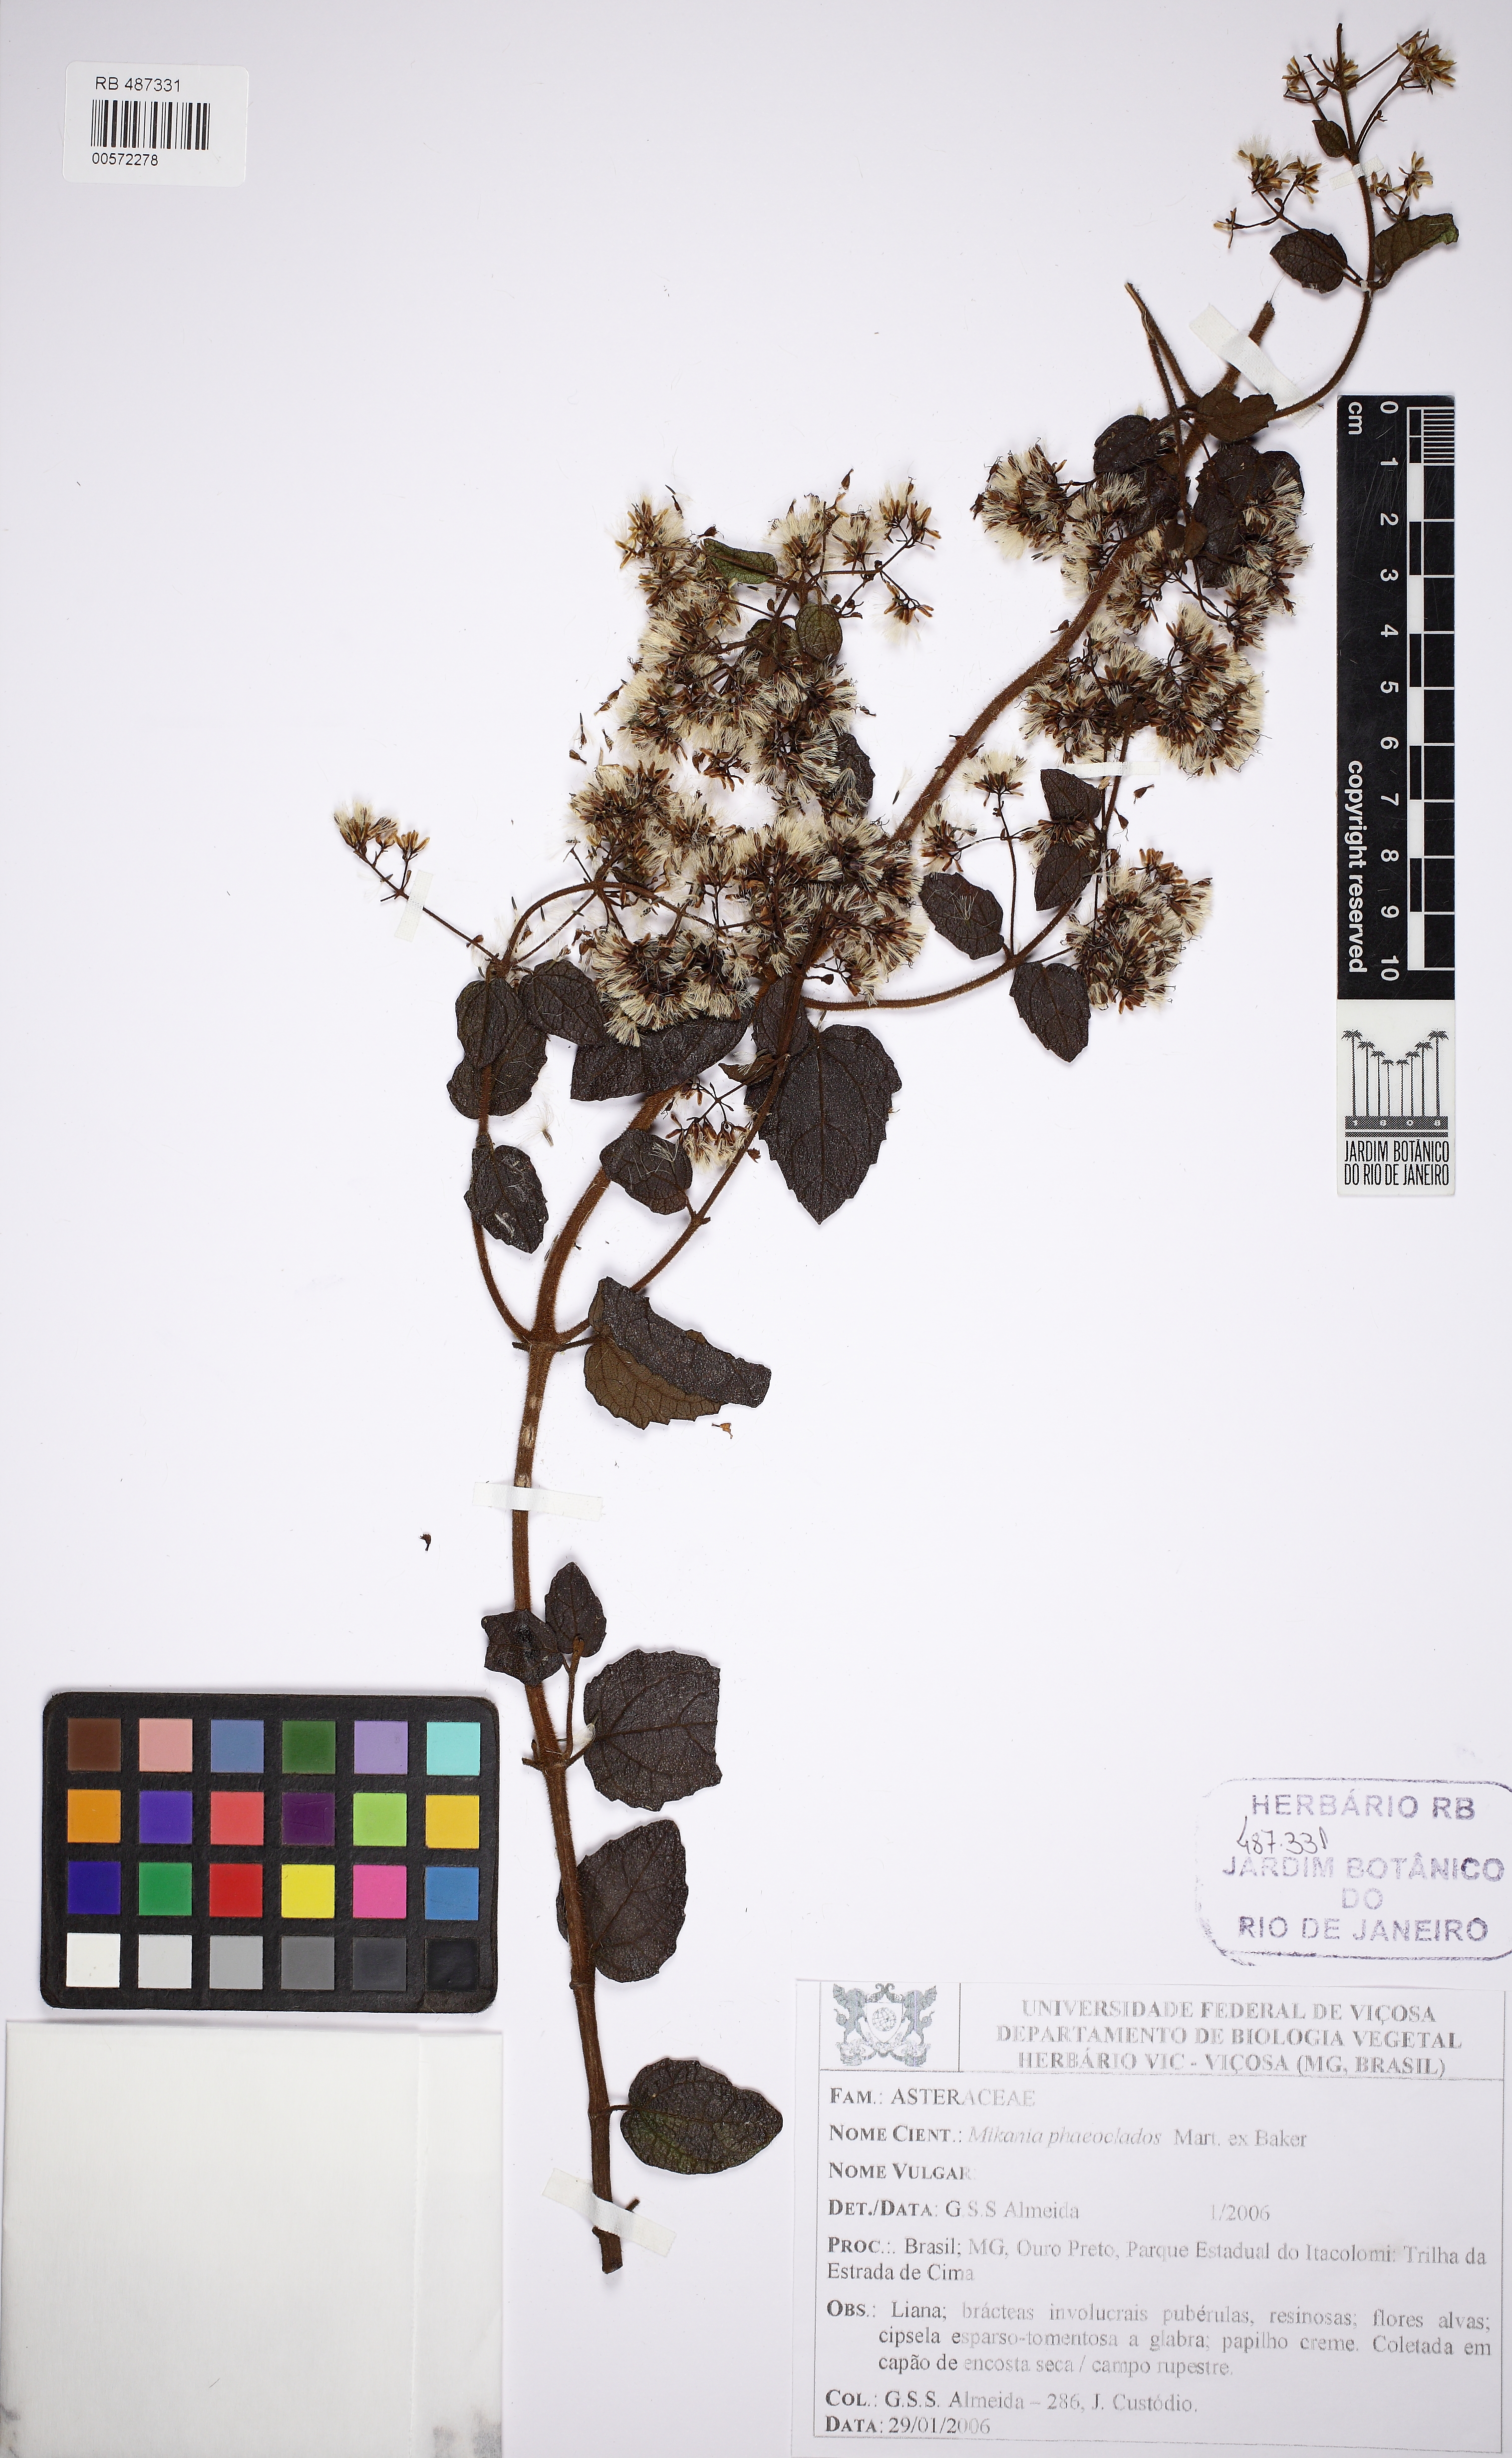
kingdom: Plantae
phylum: Tracheophyta
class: Magnoliopsida
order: Asterales
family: Asteraceae
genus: Mikania
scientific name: Mikania phaeoclados
